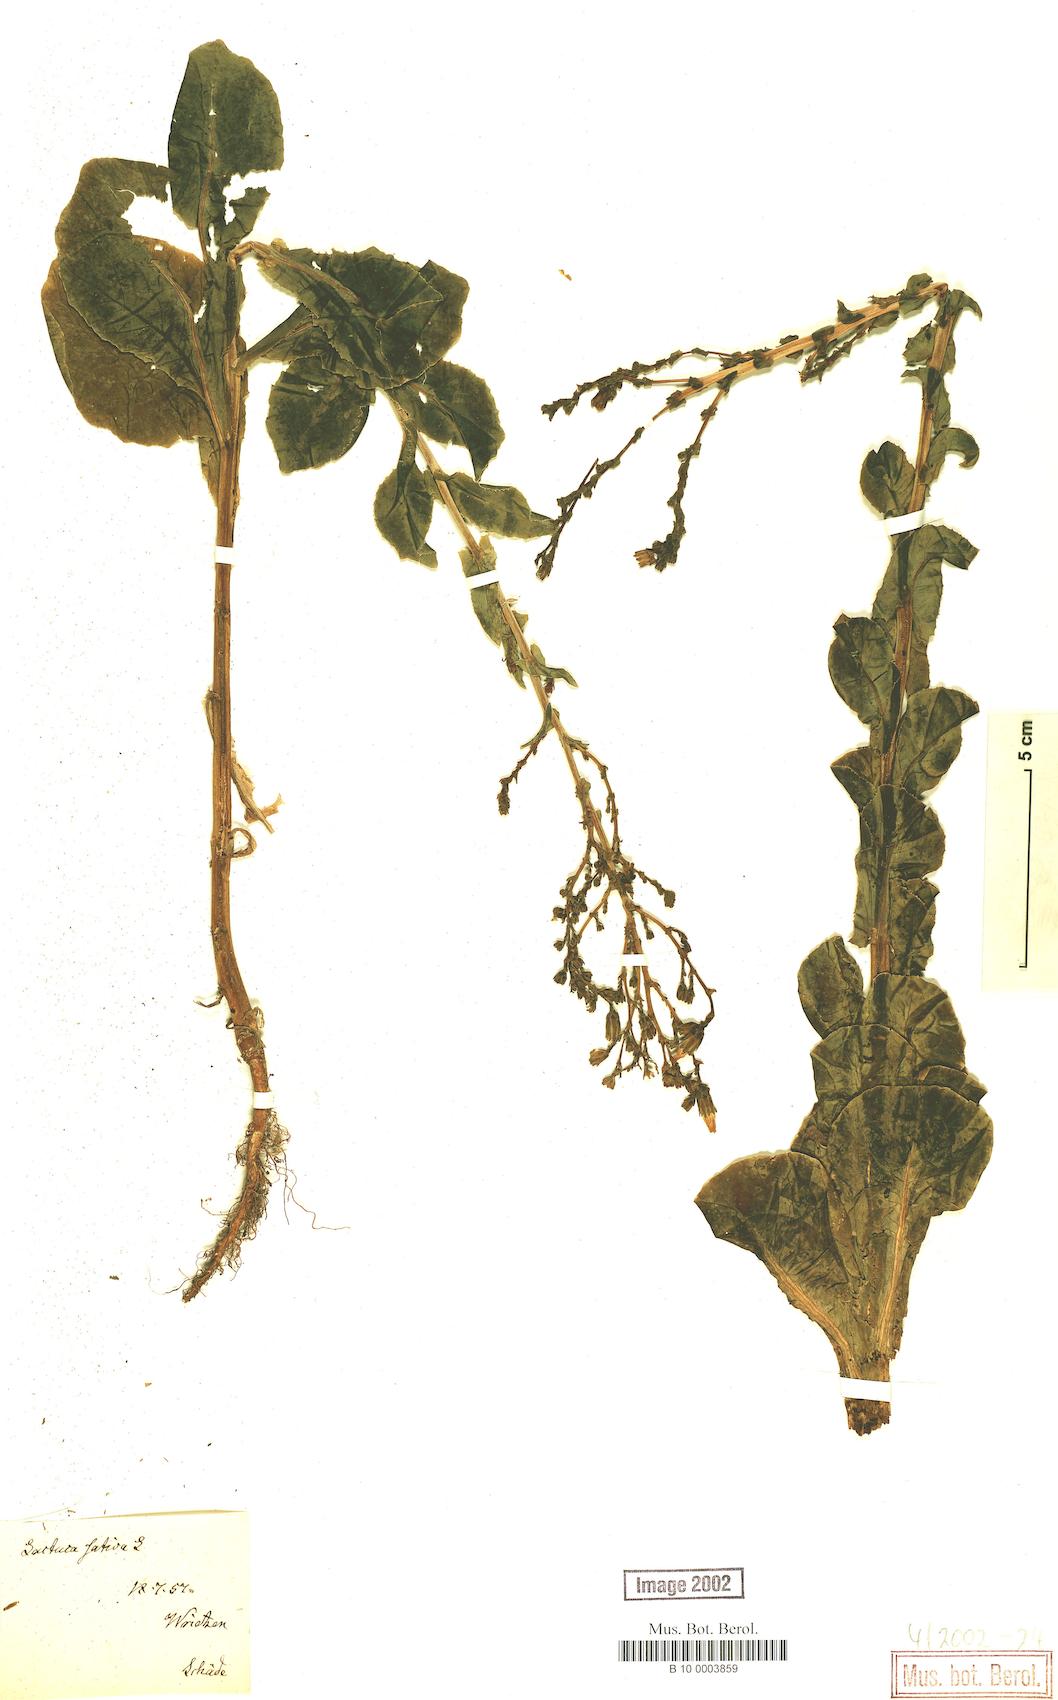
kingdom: Plantae
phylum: Tracheophyta
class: Magnoliopsida
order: Asterales
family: Asteraceae
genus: Lactuca
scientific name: Lactuca sativa
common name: Garden lettuce
